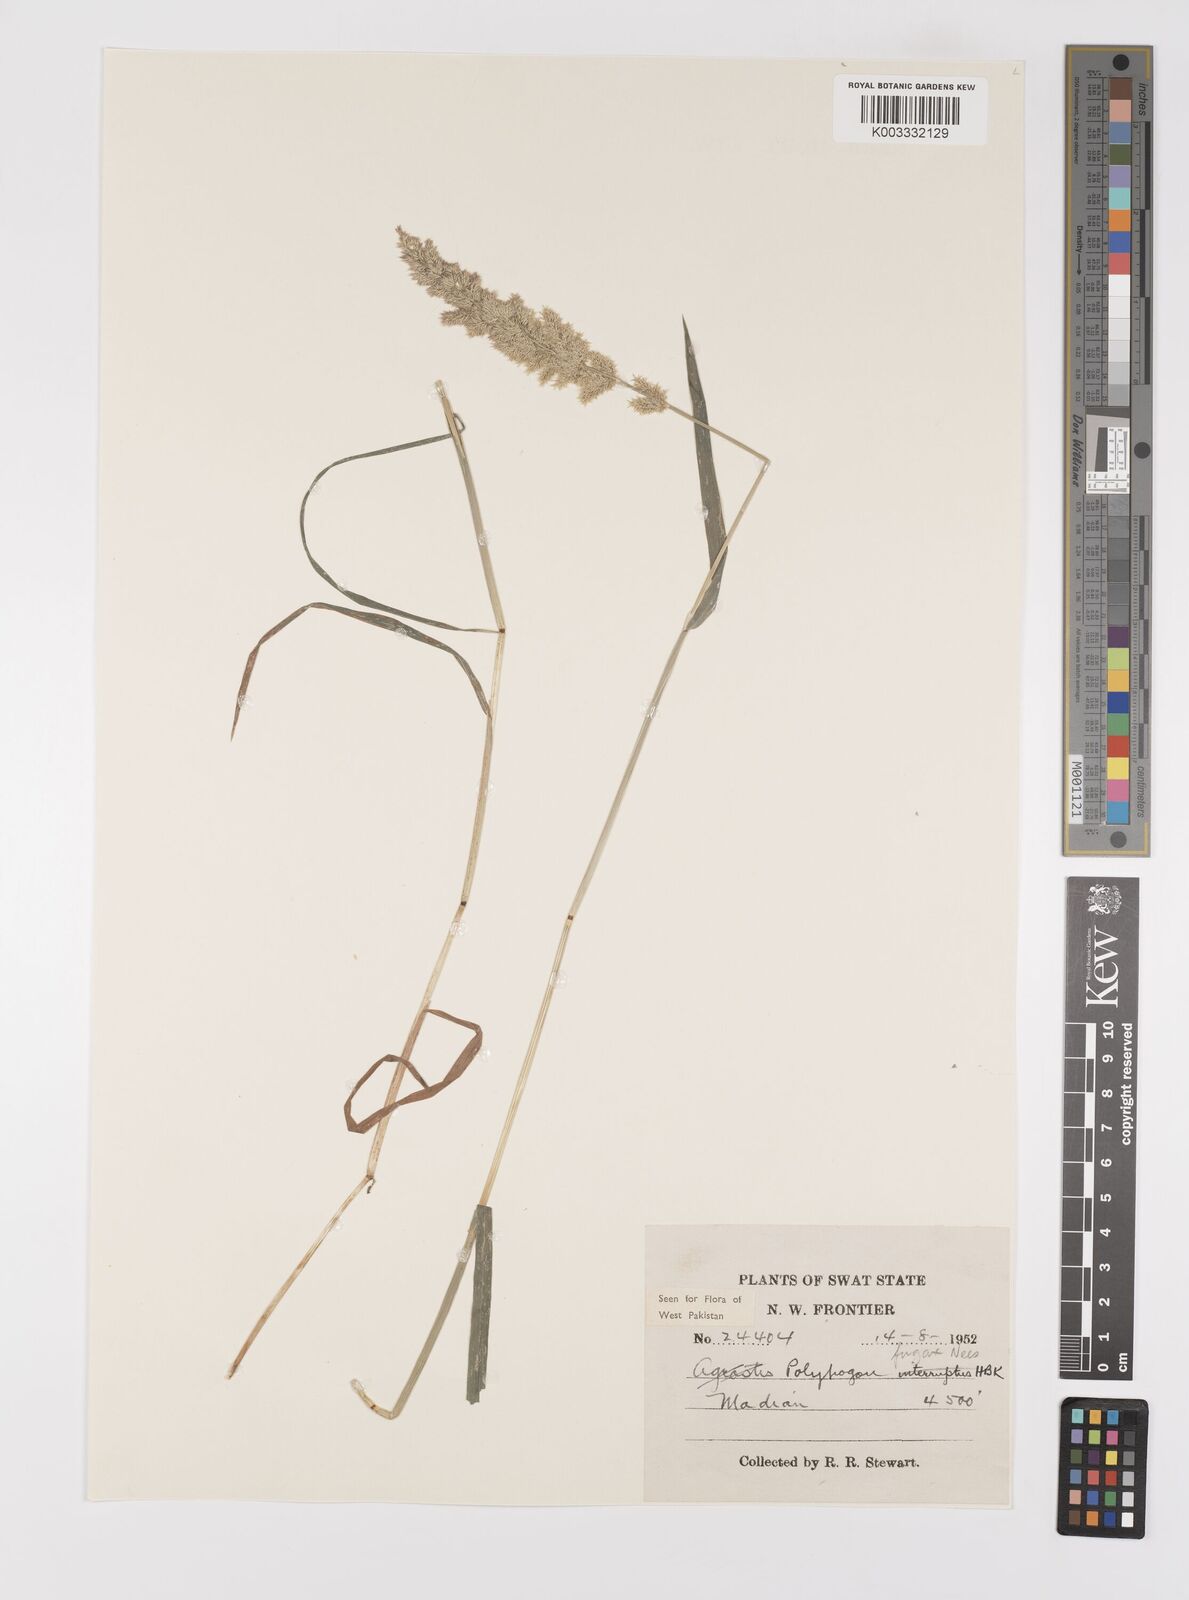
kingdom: Plantae
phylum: Tracheophyta
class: Liliopsida
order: Poales
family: Poaceae
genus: Polypogon
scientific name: Polypogon fugax
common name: Asia minor bluegrass
